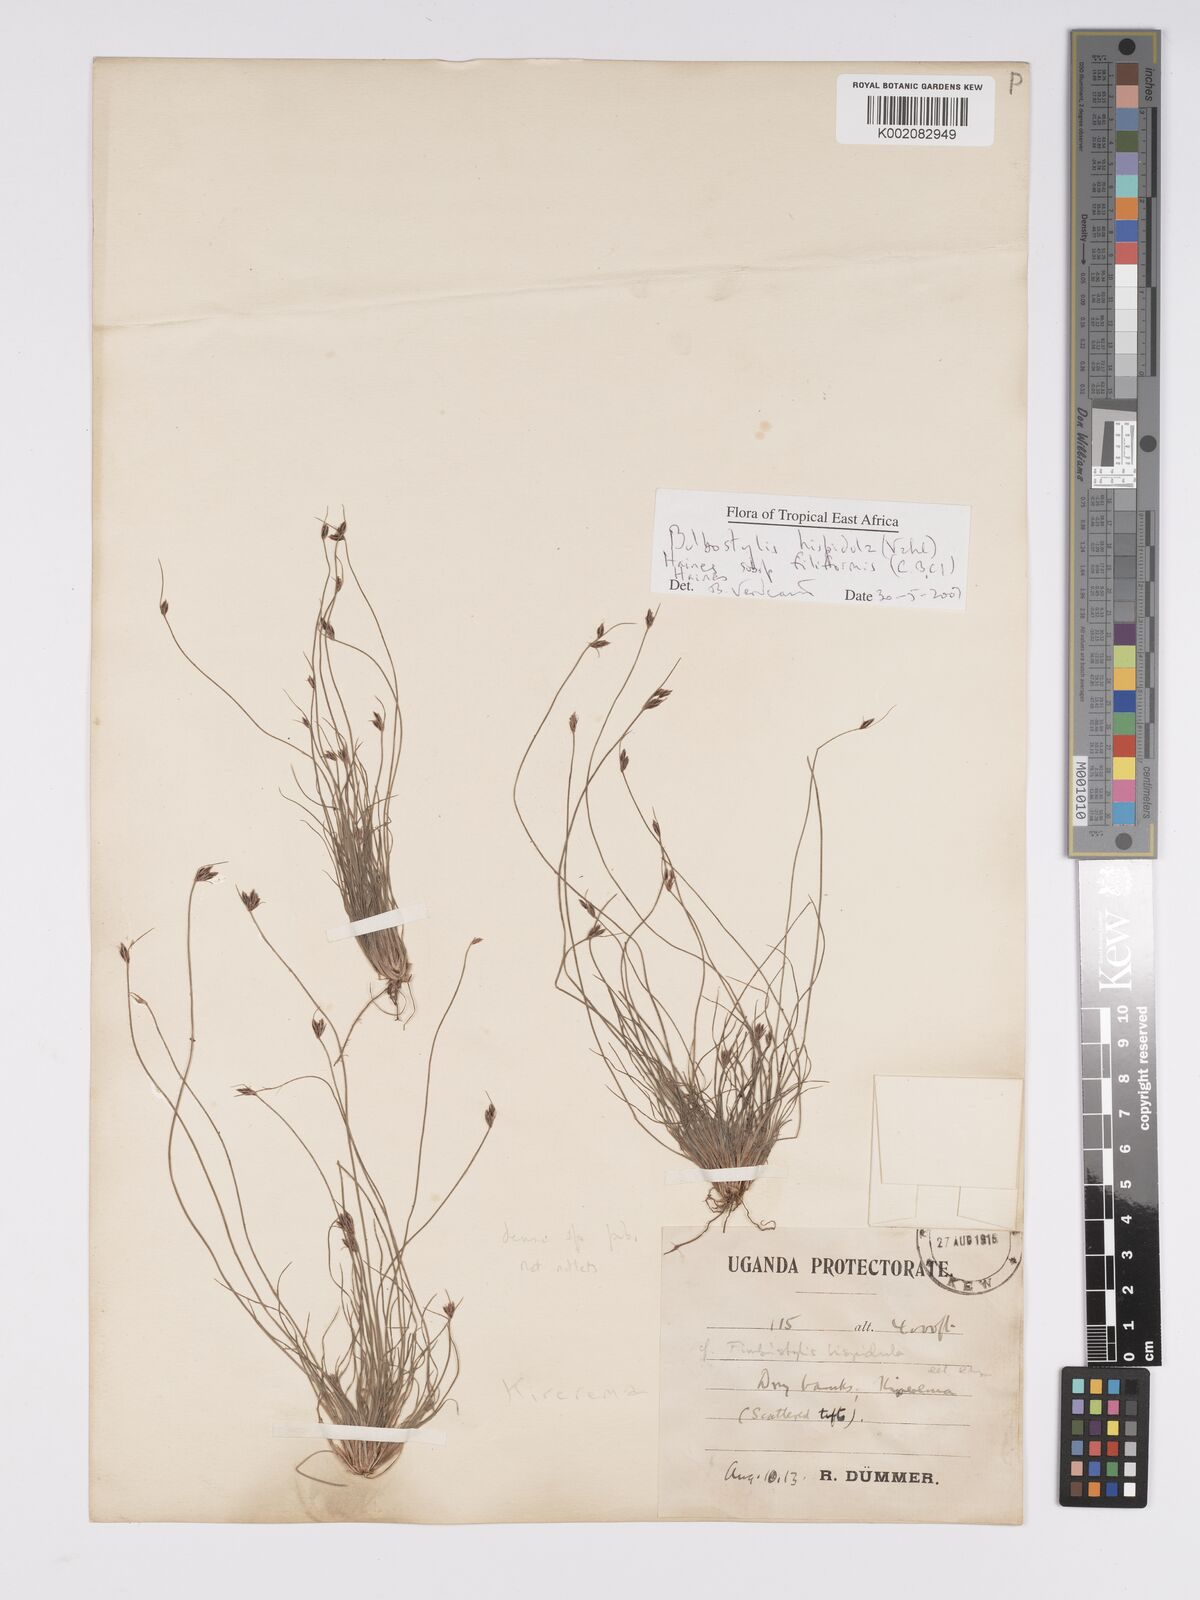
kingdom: Plantae
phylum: Tracheophyta
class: Liliopsida
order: Poales
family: Cyperaceae
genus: Bulbostylis
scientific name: Bulbostylis hispidula
